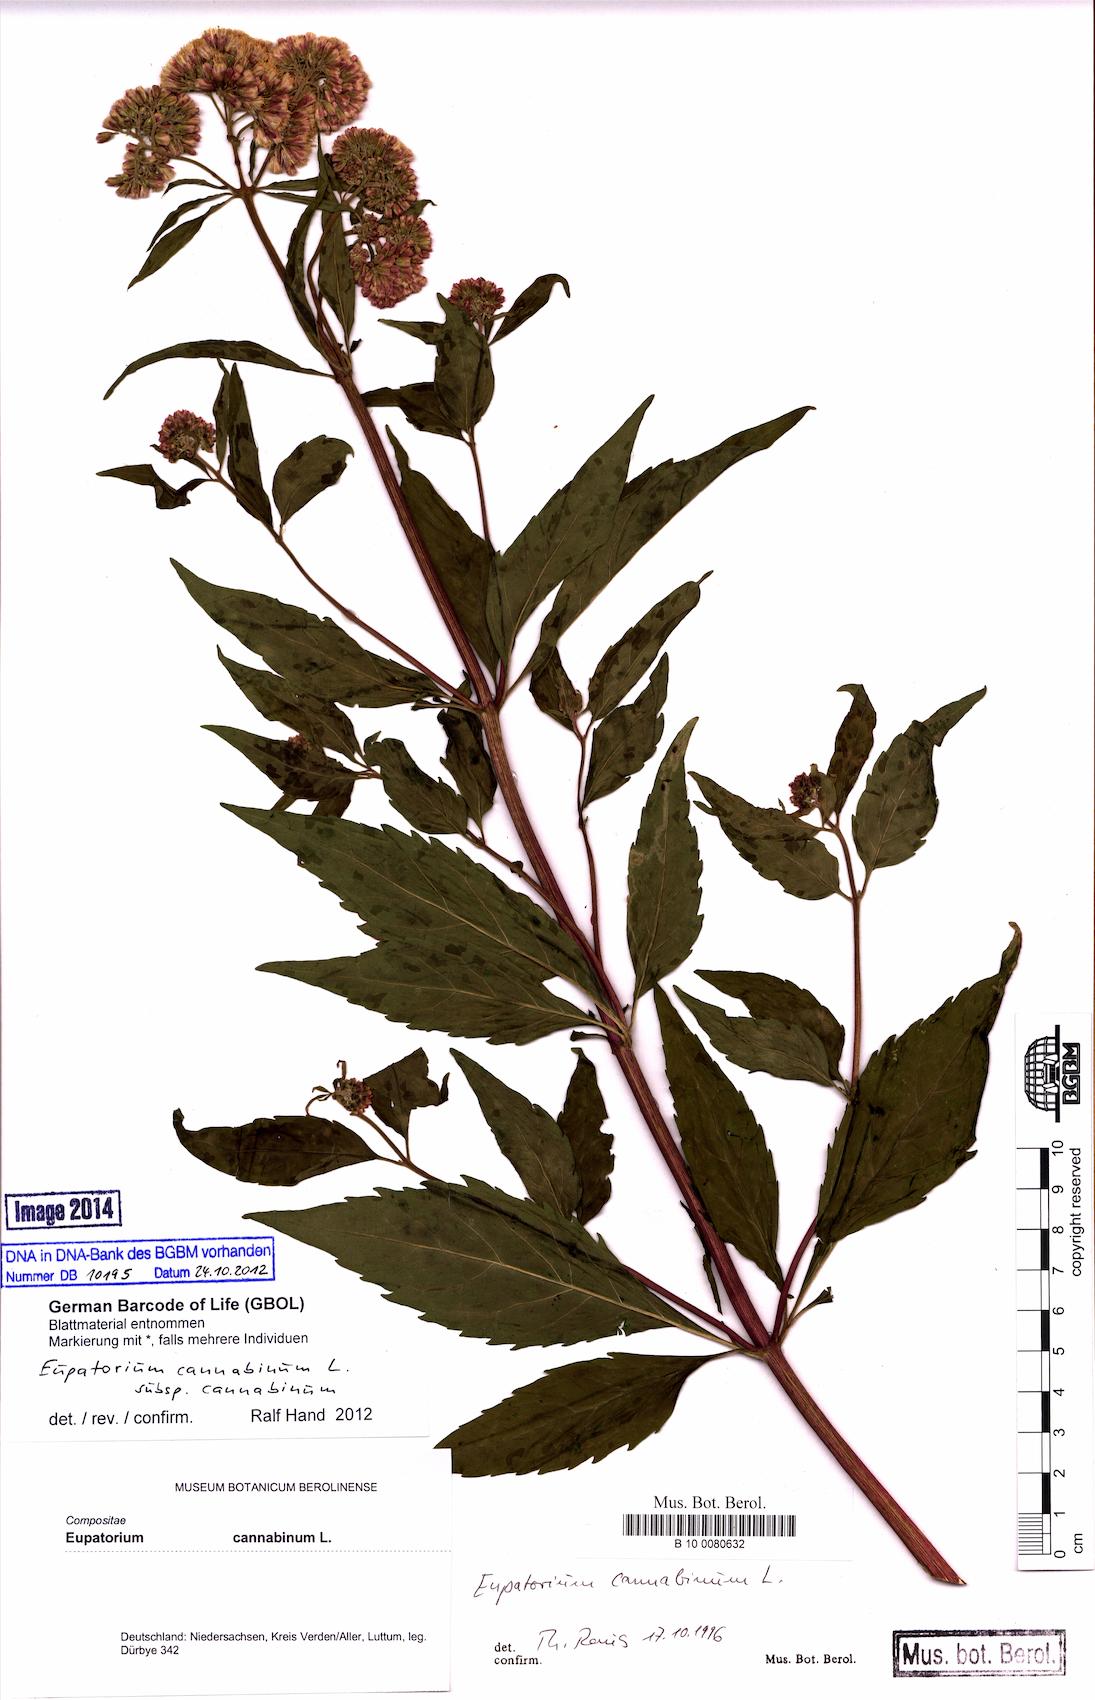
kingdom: Plantae
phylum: Tracheophyta
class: Magnoliopsida
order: Asterales
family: Asteraceae
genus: Eupatorium
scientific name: Eupatorium cannabinum
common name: Hemp-agrimony
